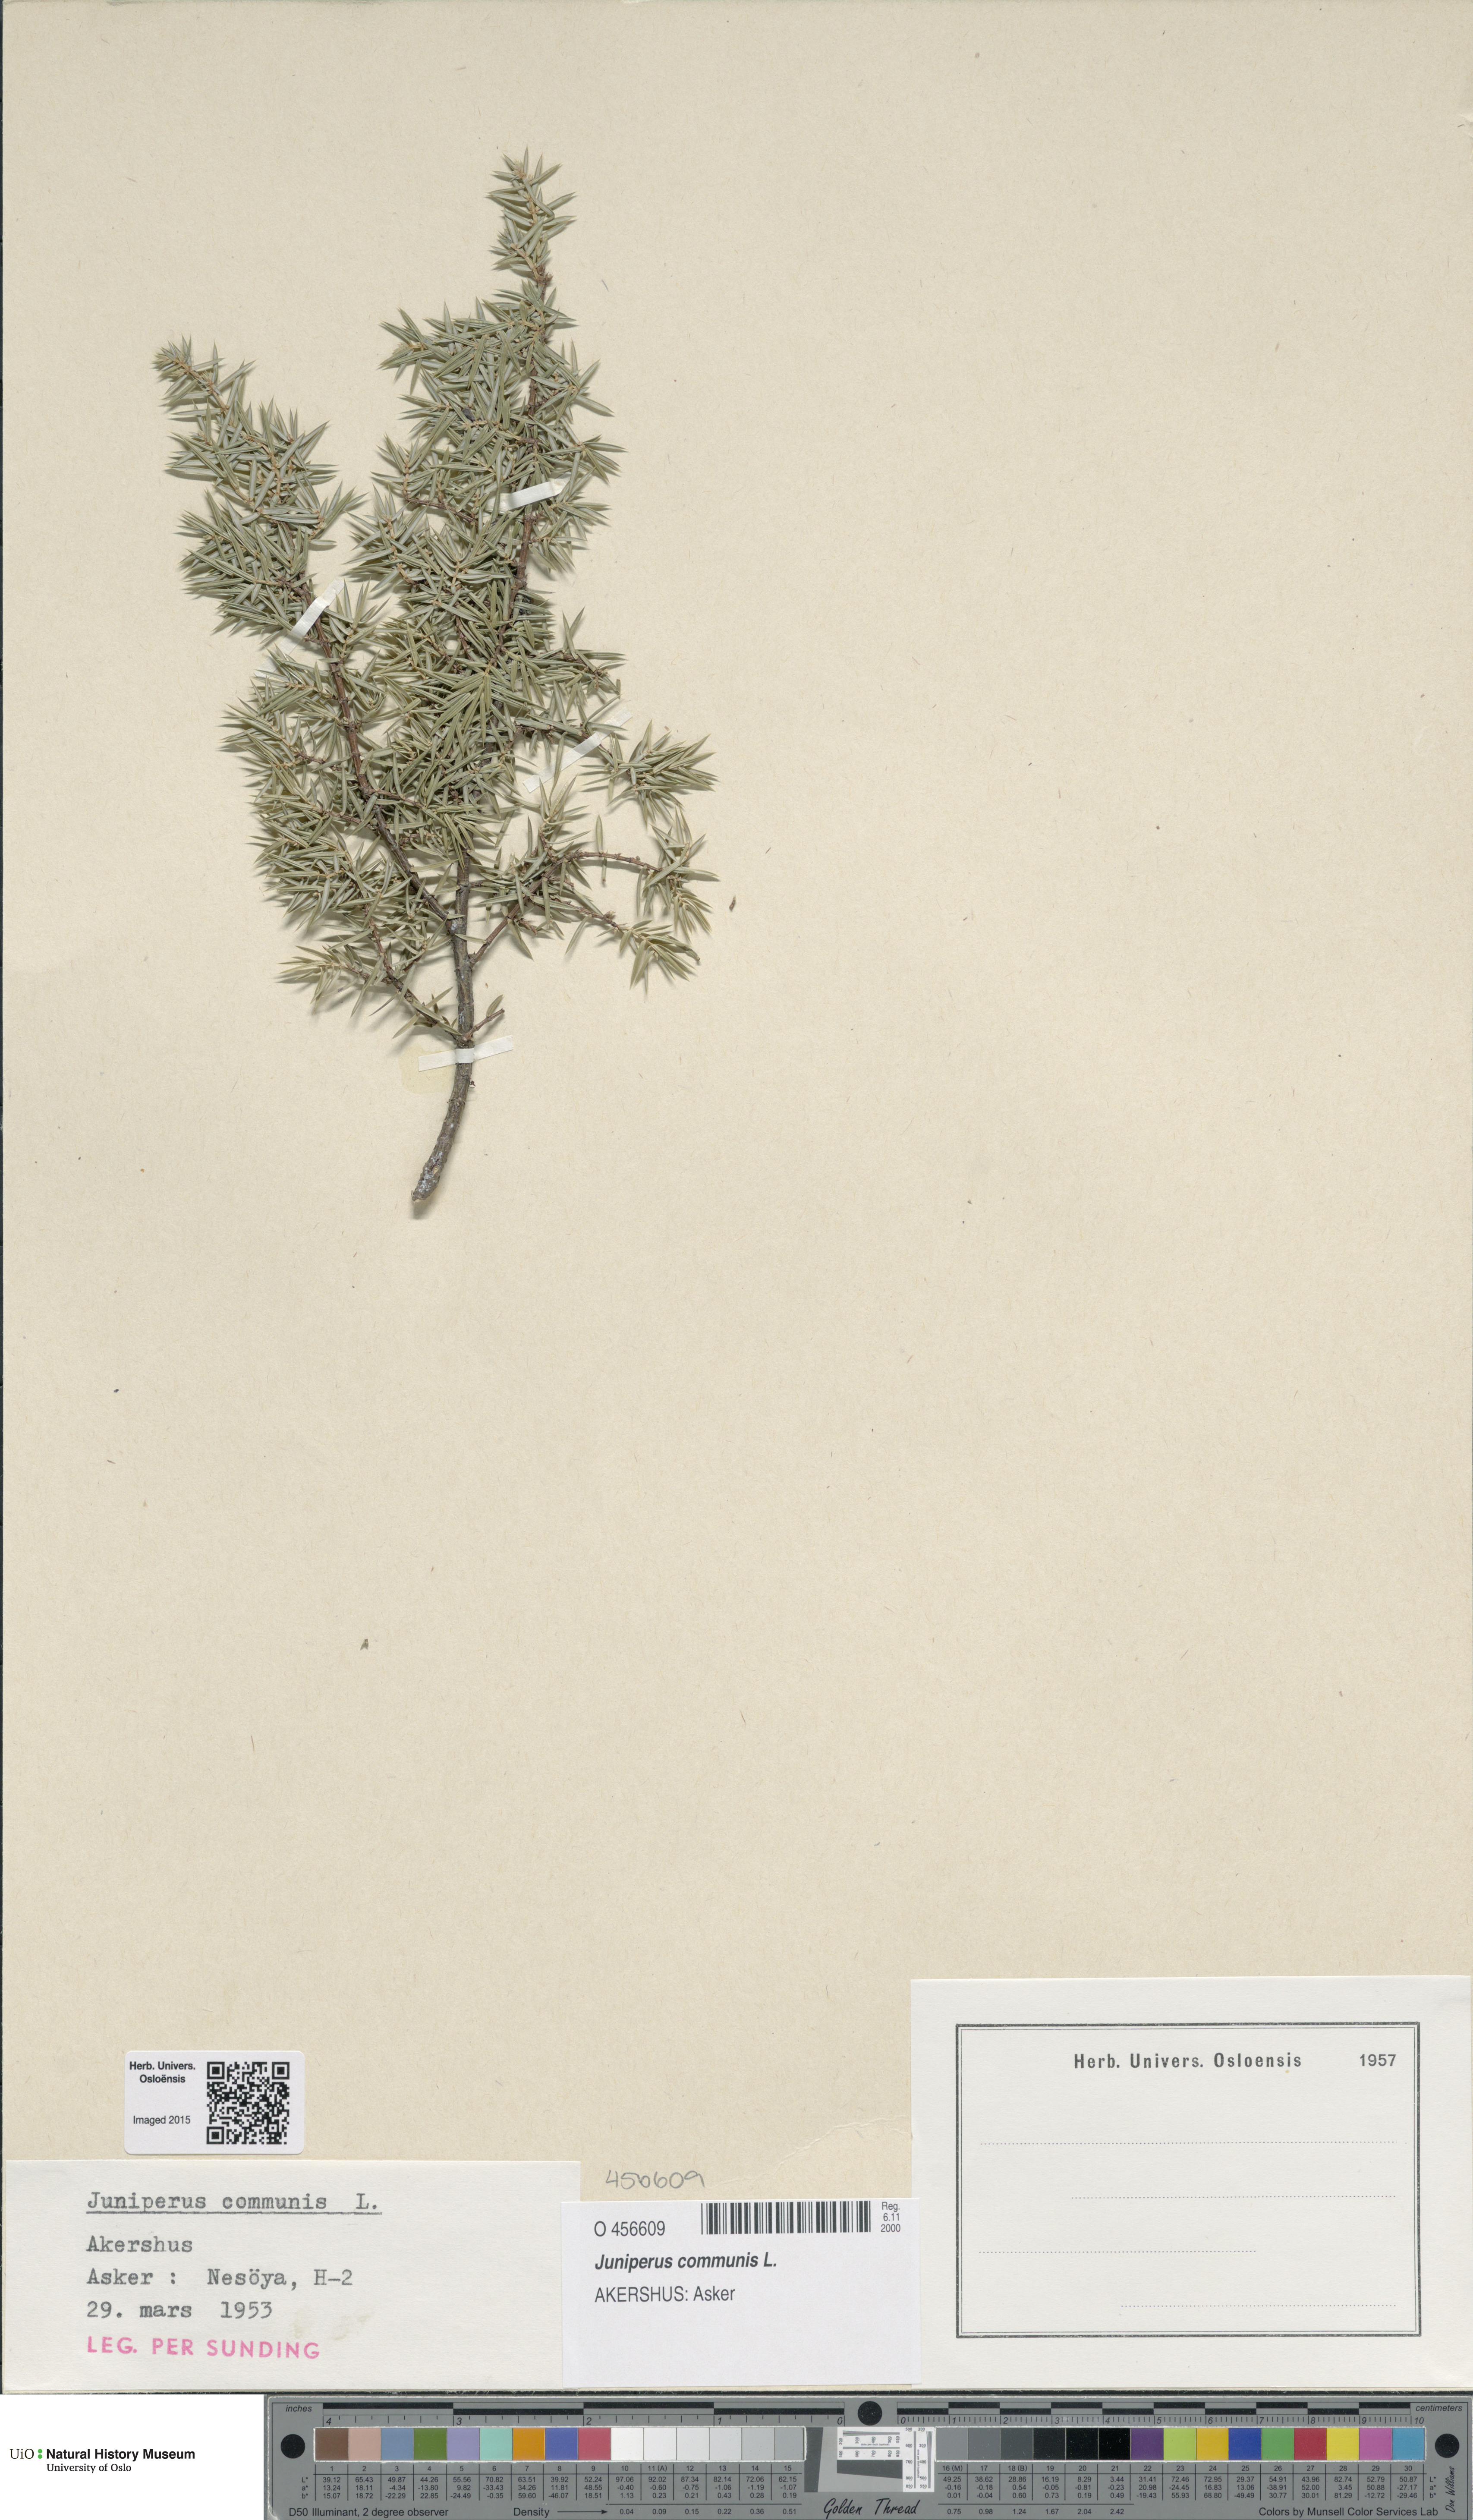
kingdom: Plantae
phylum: Tracheophyta
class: Pinopsida
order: Pinales
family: Cupressaceae
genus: Juniperus
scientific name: Juniperus communis
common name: Common juniper
